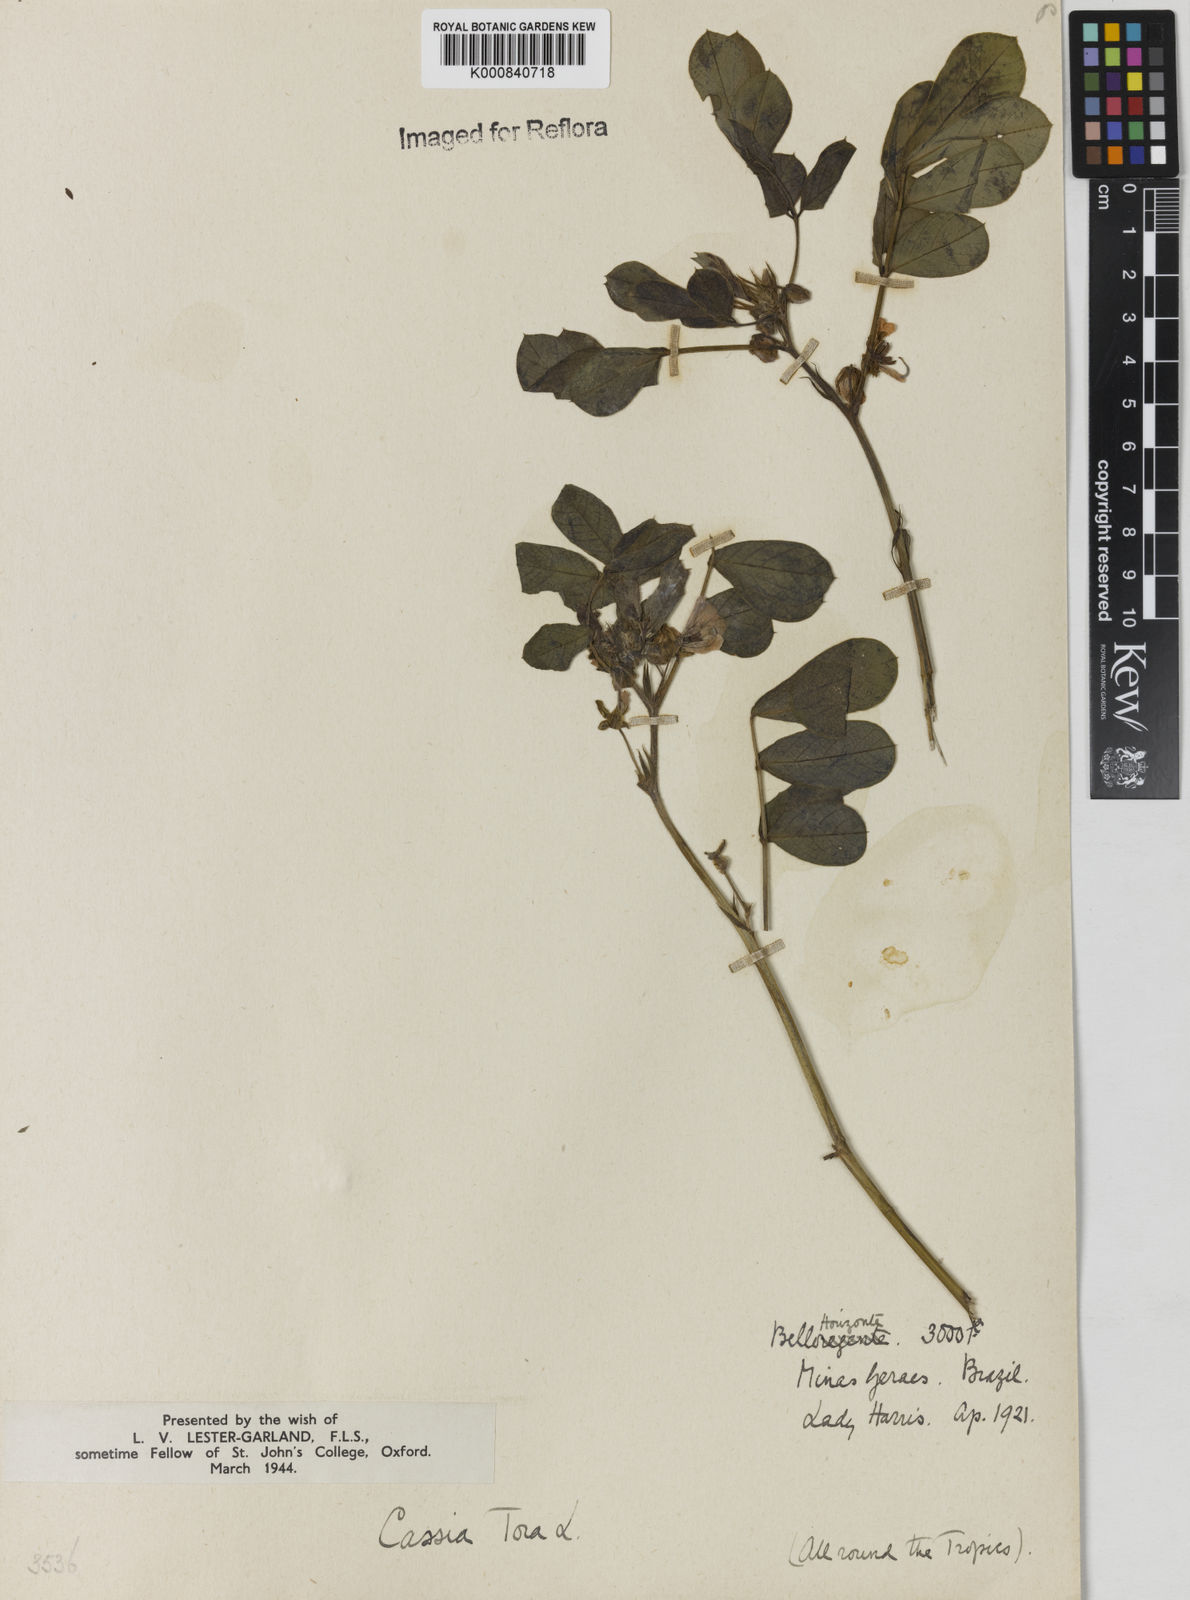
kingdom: Plantae
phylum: Tracheophyta
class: Magnoliopsida
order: Fabales
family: Fabaceae
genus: Senna
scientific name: Senna obtusifolia
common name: Java-bean
